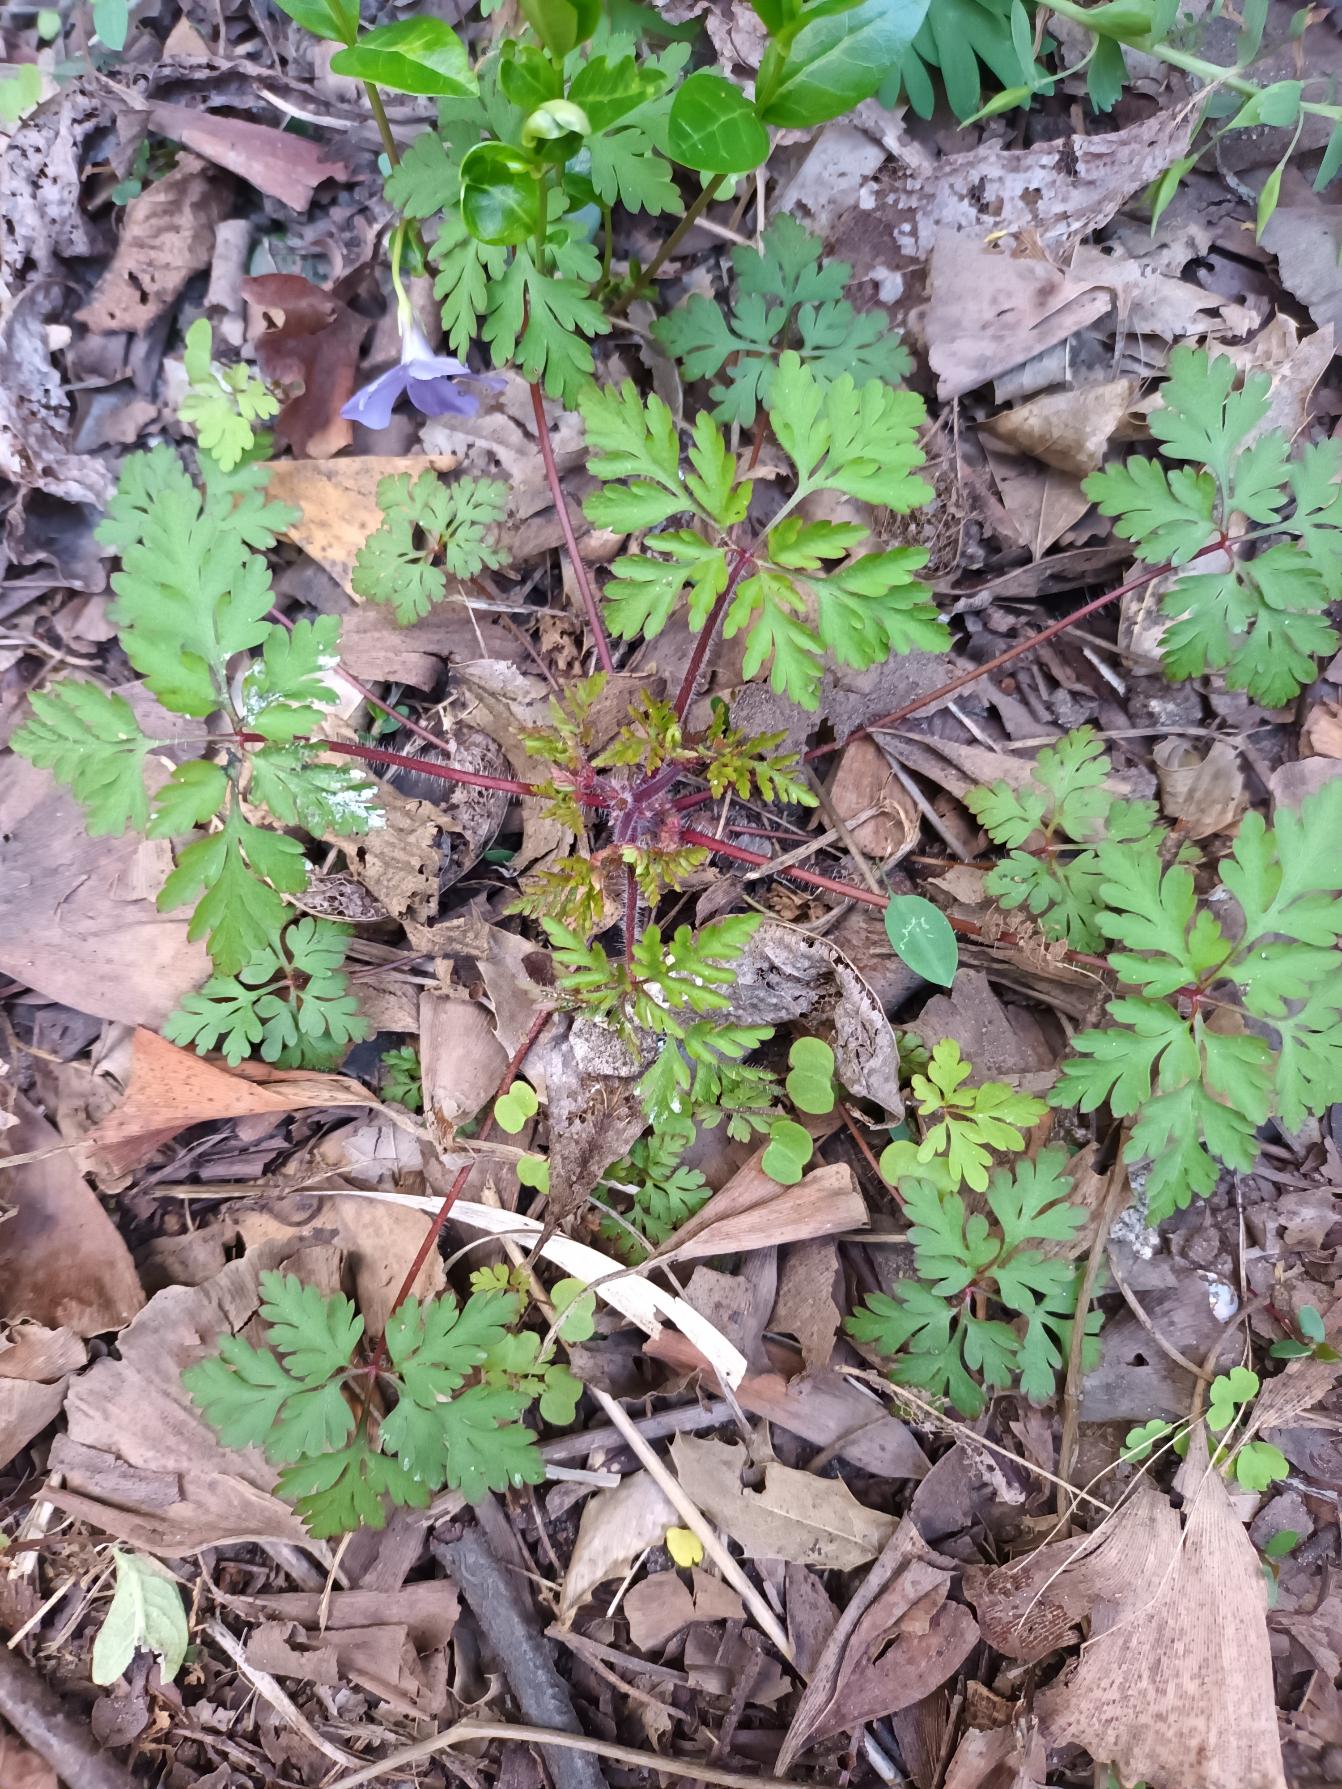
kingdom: Plantae
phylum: Tracheophyta
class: Magnoliopsida
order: Geraniales
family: Geraniaceae
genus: Geranium
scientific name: Geranium robertianum
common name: Stinkende storkenæb
